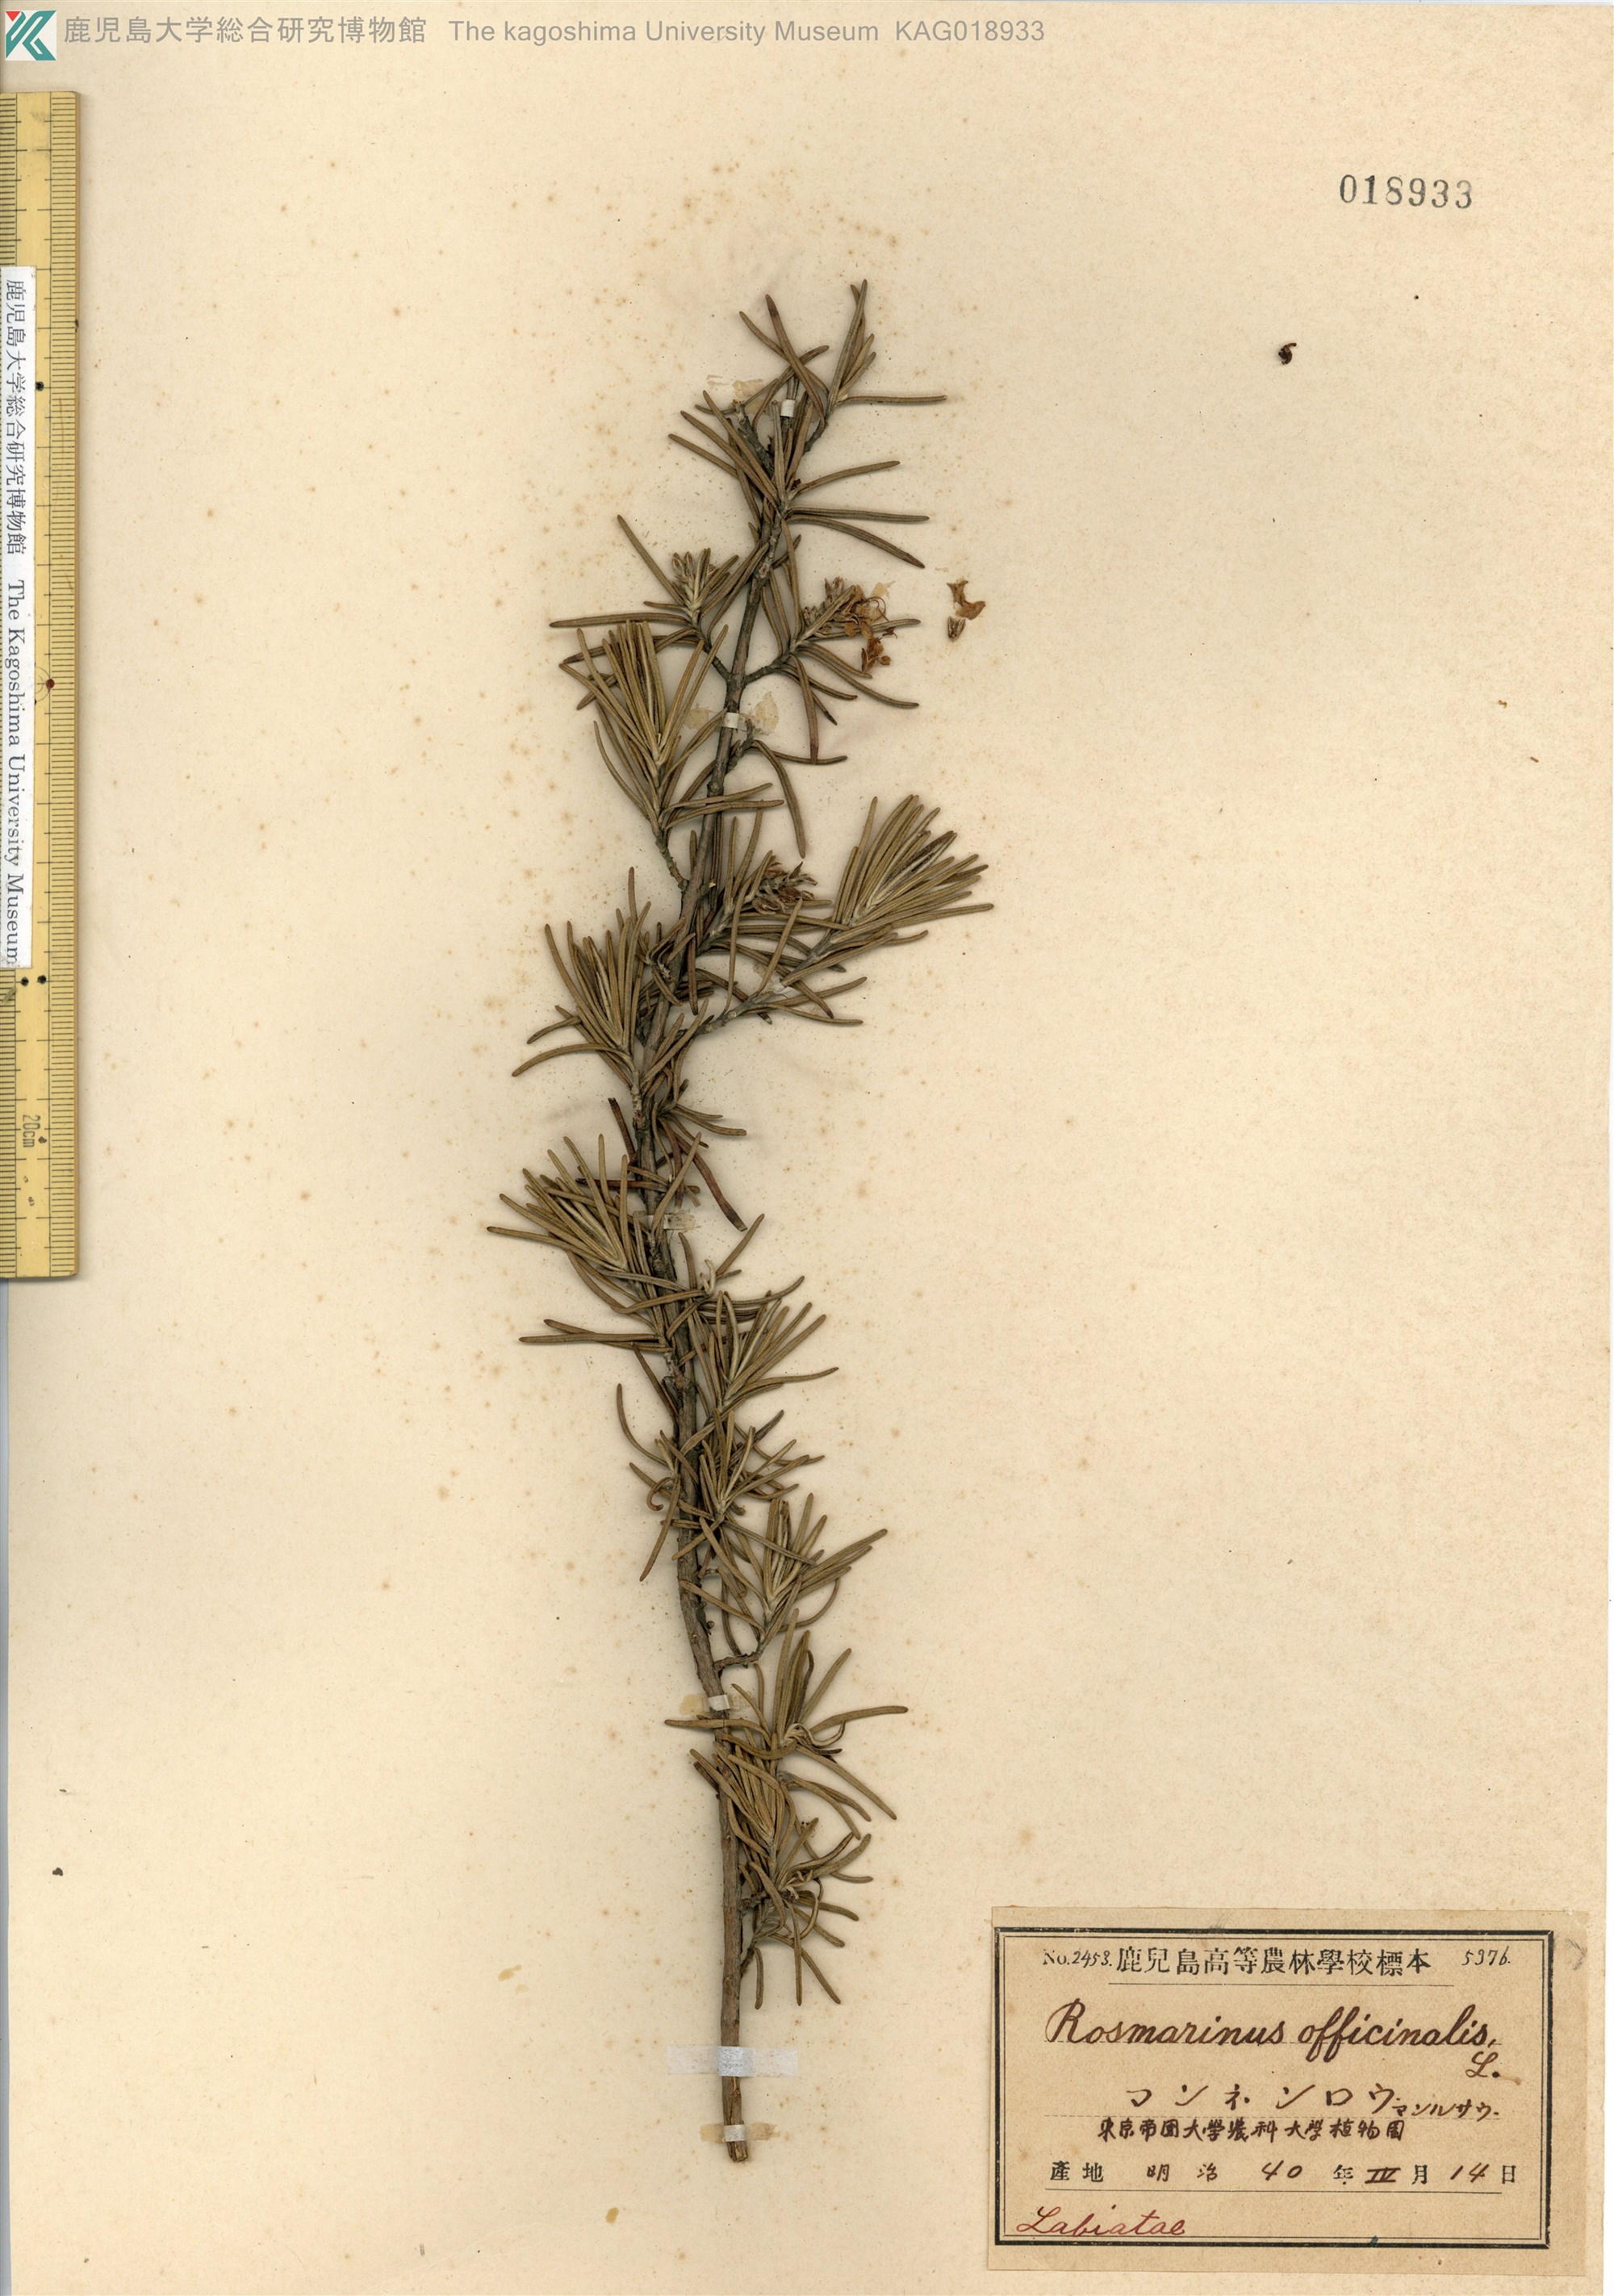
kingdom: Plantae
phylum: Tracheophyta
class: Magnoliopsida
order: Lamiales
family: Lamiaceae
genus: Salvia
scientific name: Salvia rosmarinus
